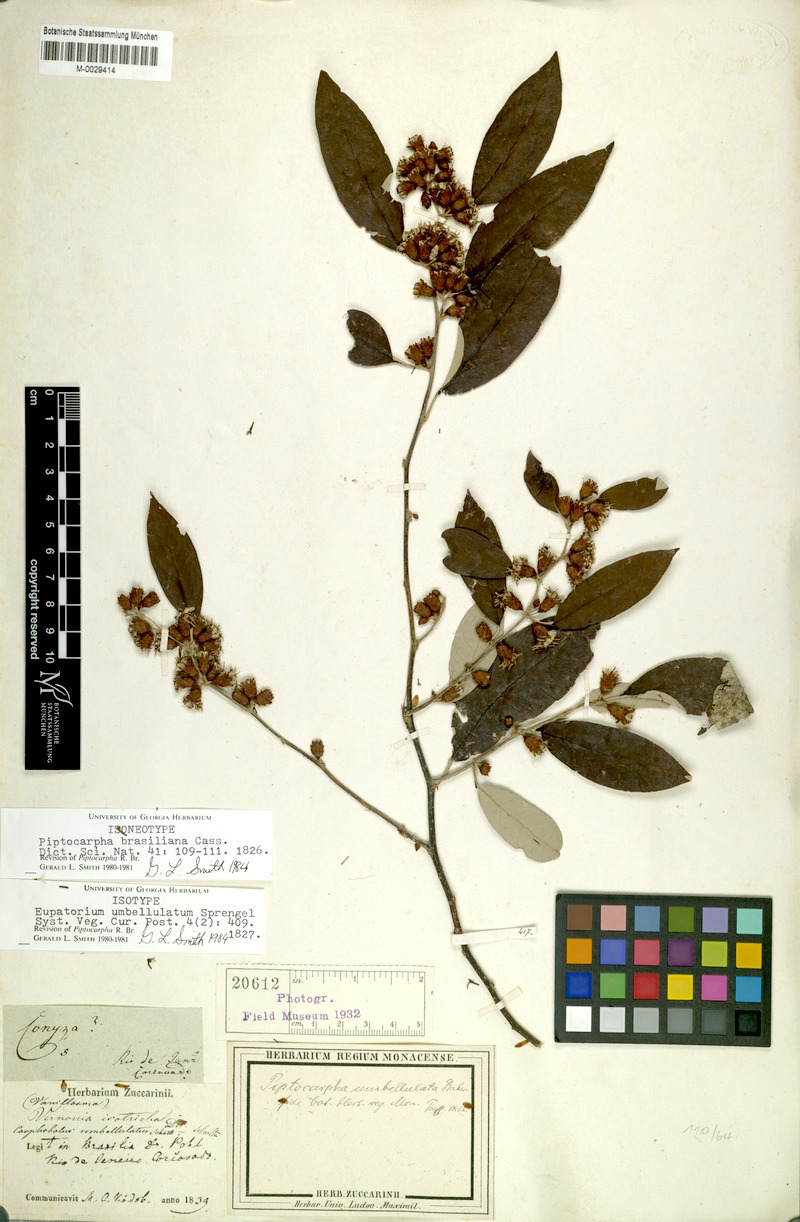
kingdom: Plantae
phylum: Tracheophyta
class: Magnoliopsida
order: Asterales
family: Asteraceae
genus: Piptocarpha
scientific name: Piptocarpha brasiliana
